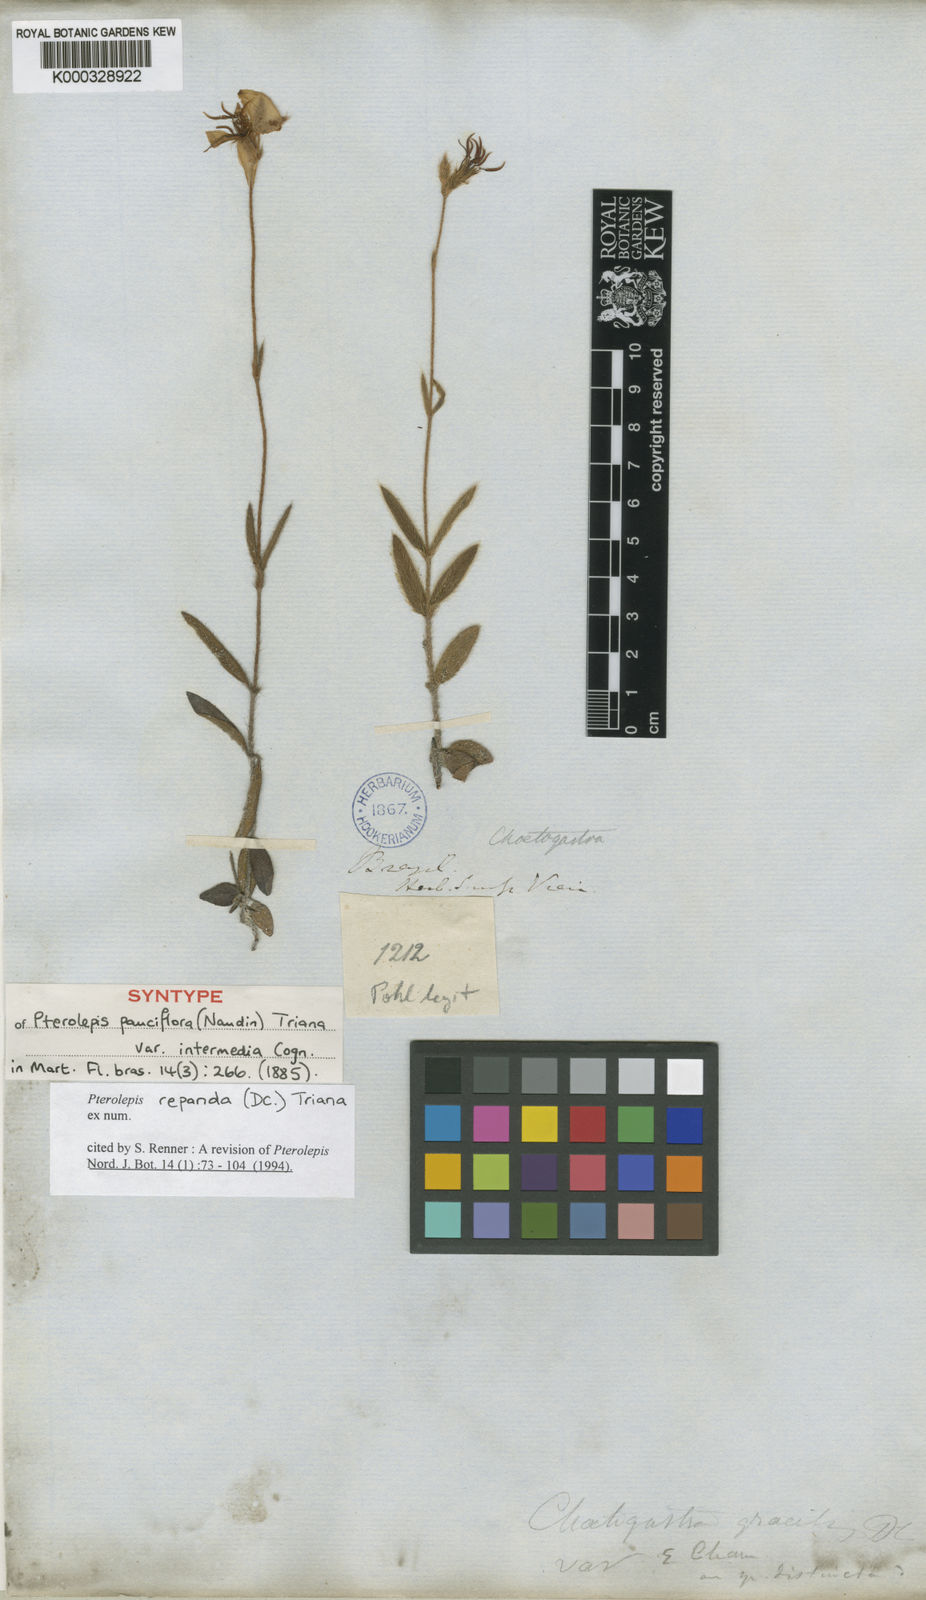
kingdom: Plantae
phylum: Tracheophyta
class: Magnoliopsida
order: Myrtales
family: Melastomataceae
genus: Pterolepis
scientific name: Pterolepis repanda
